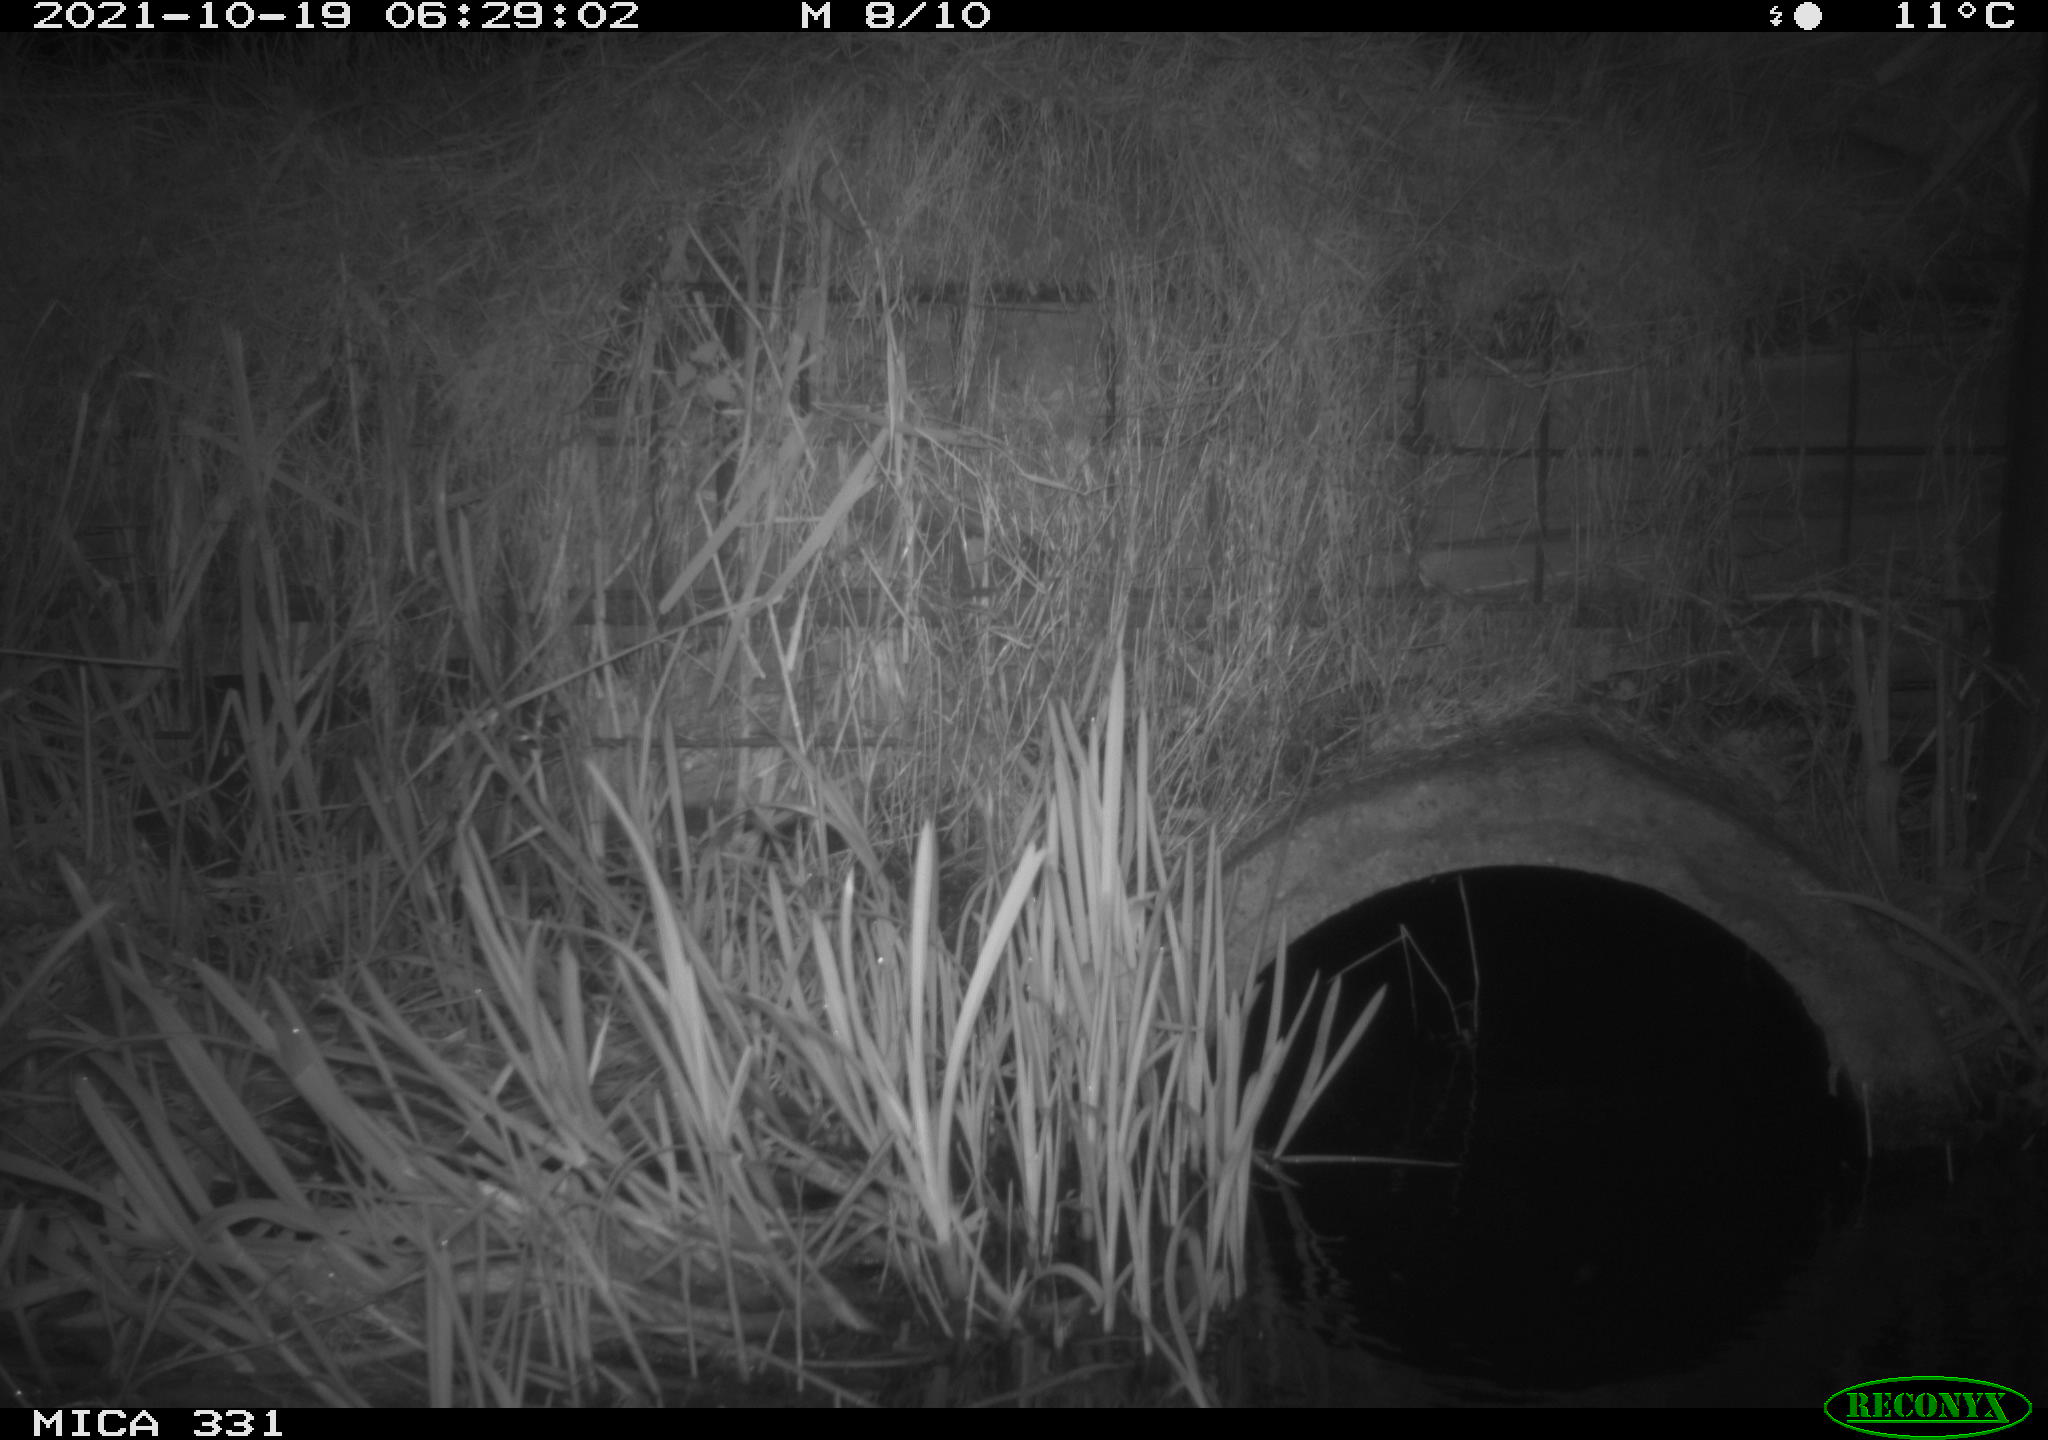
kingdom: Animalia
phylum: Chordata
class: Mammalia
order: Carnivora
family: Mustelidae
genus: Mustela
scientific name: Mustela putorius
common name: European polecat
